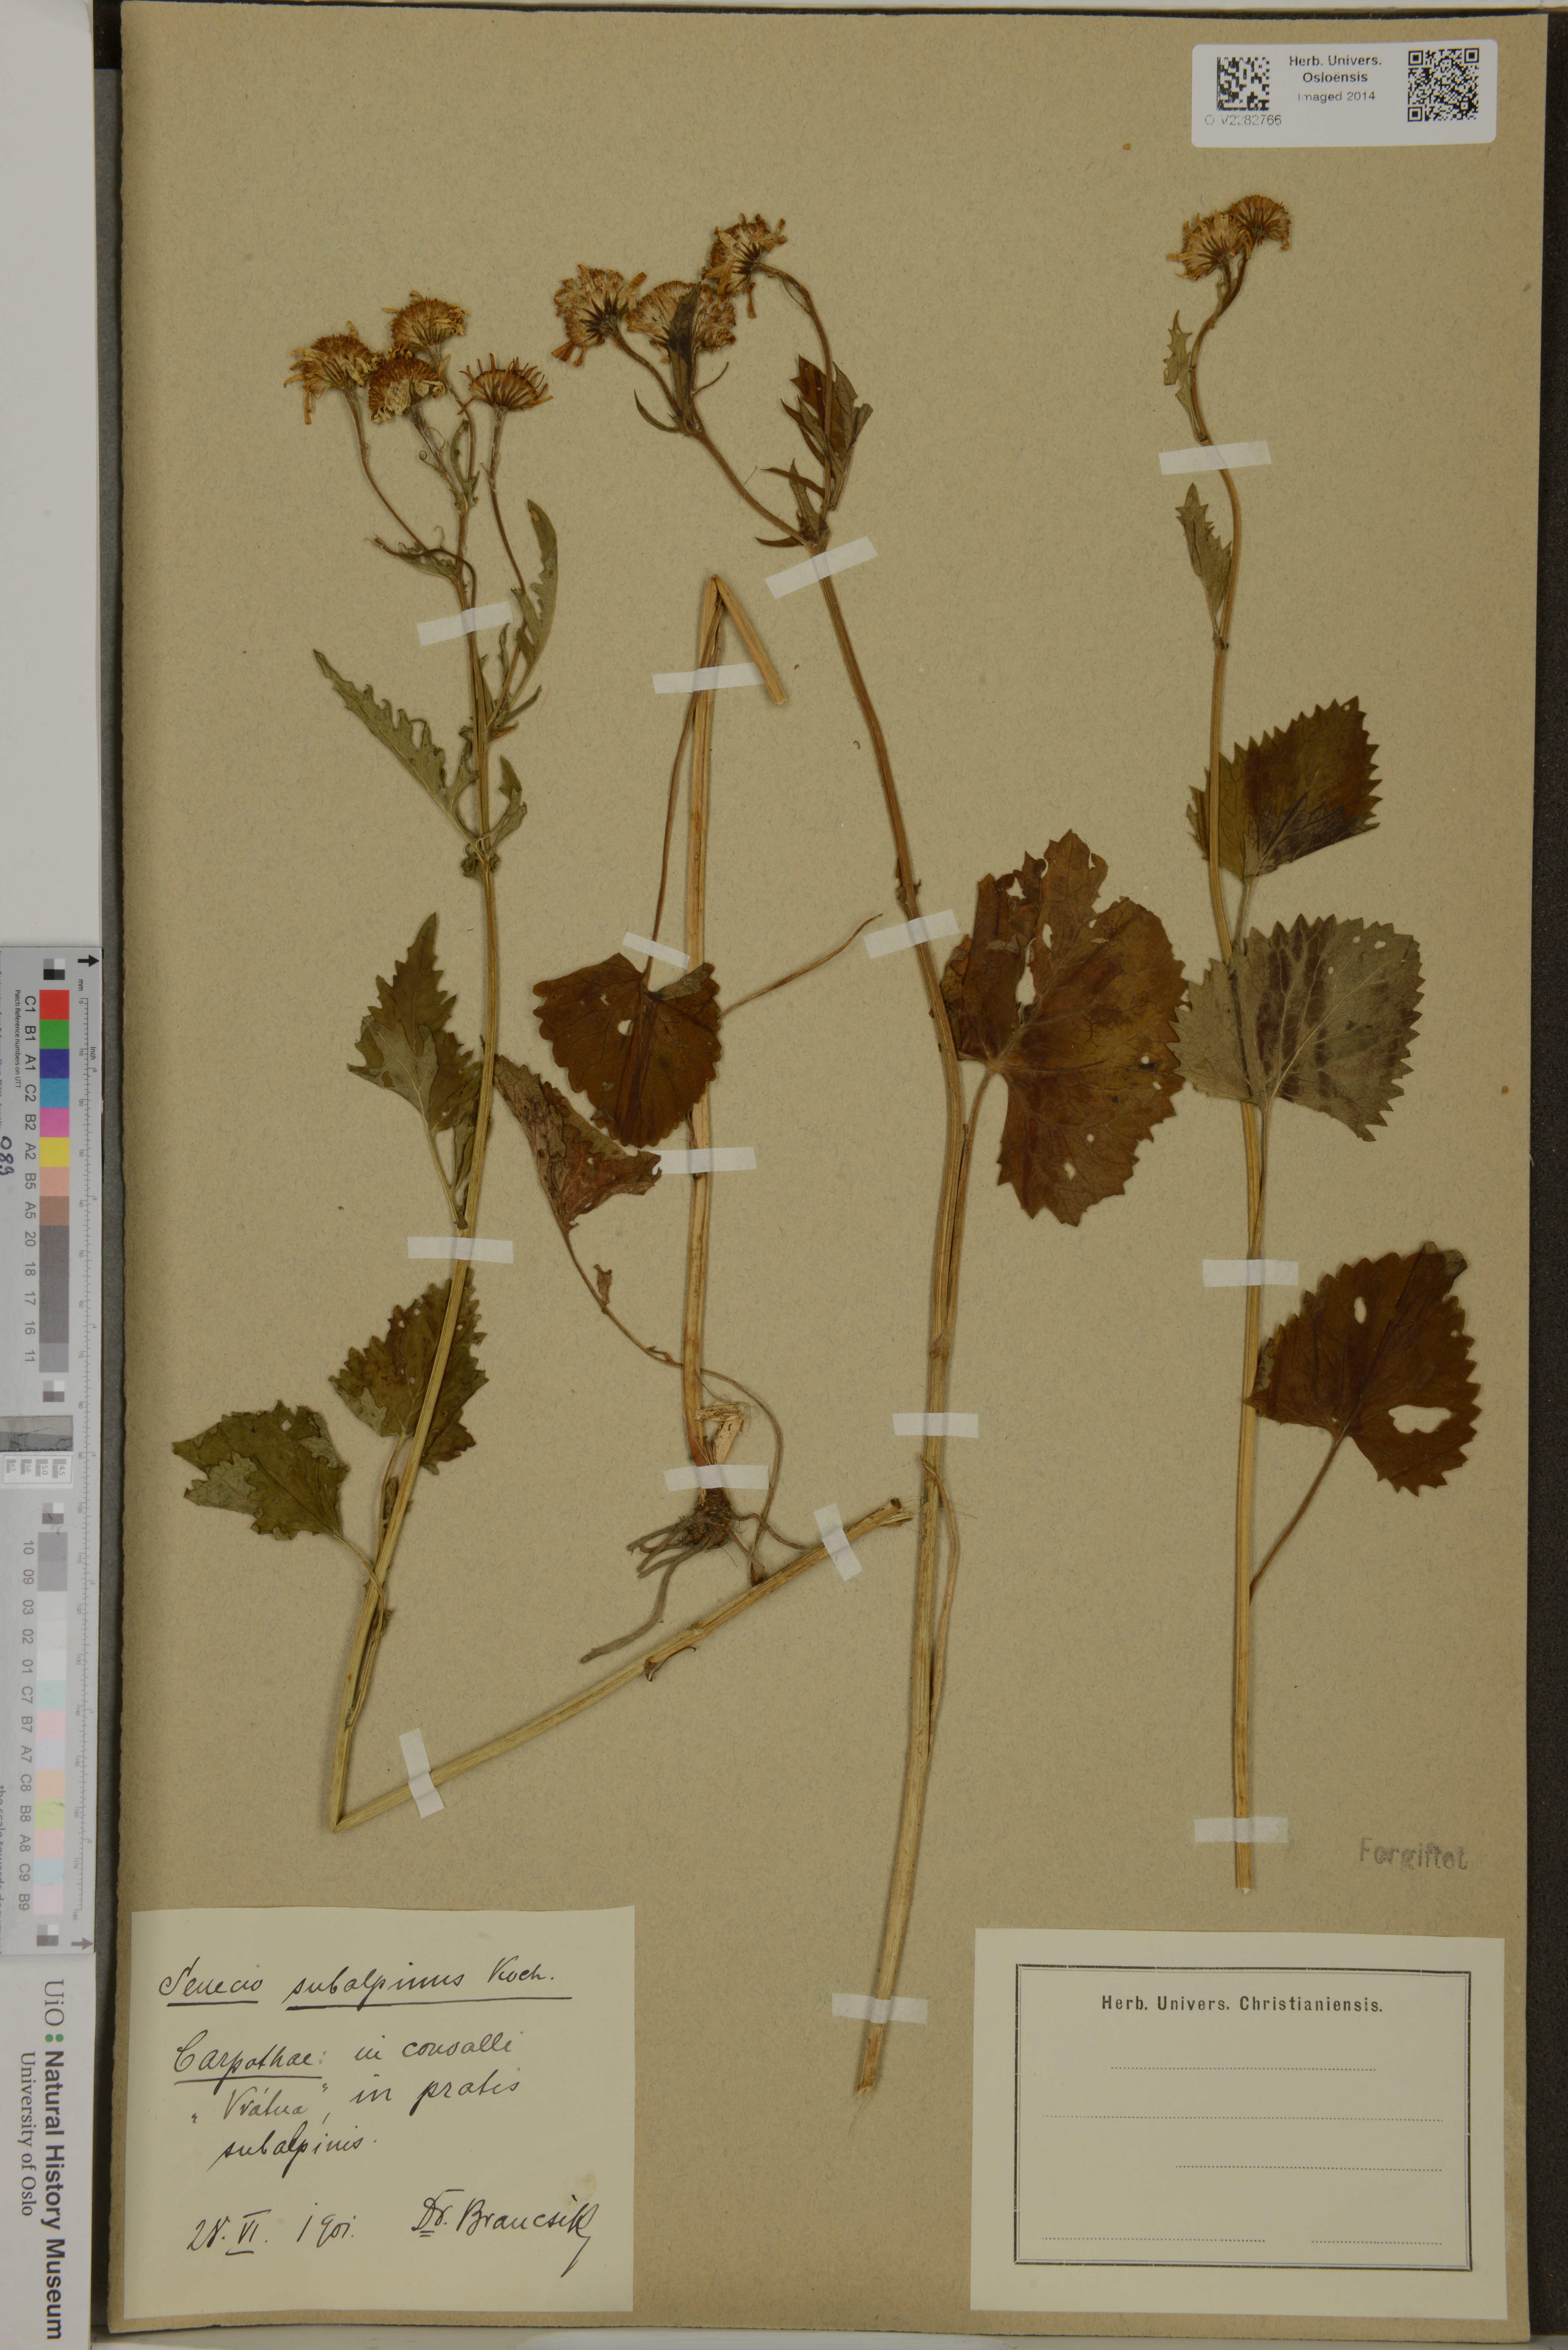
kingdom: Plantae
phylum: Tracheophyta
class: Magnoliopsida
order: Asterales
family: Asteraceae
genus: Senecio
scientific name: Senecio subalpinus
